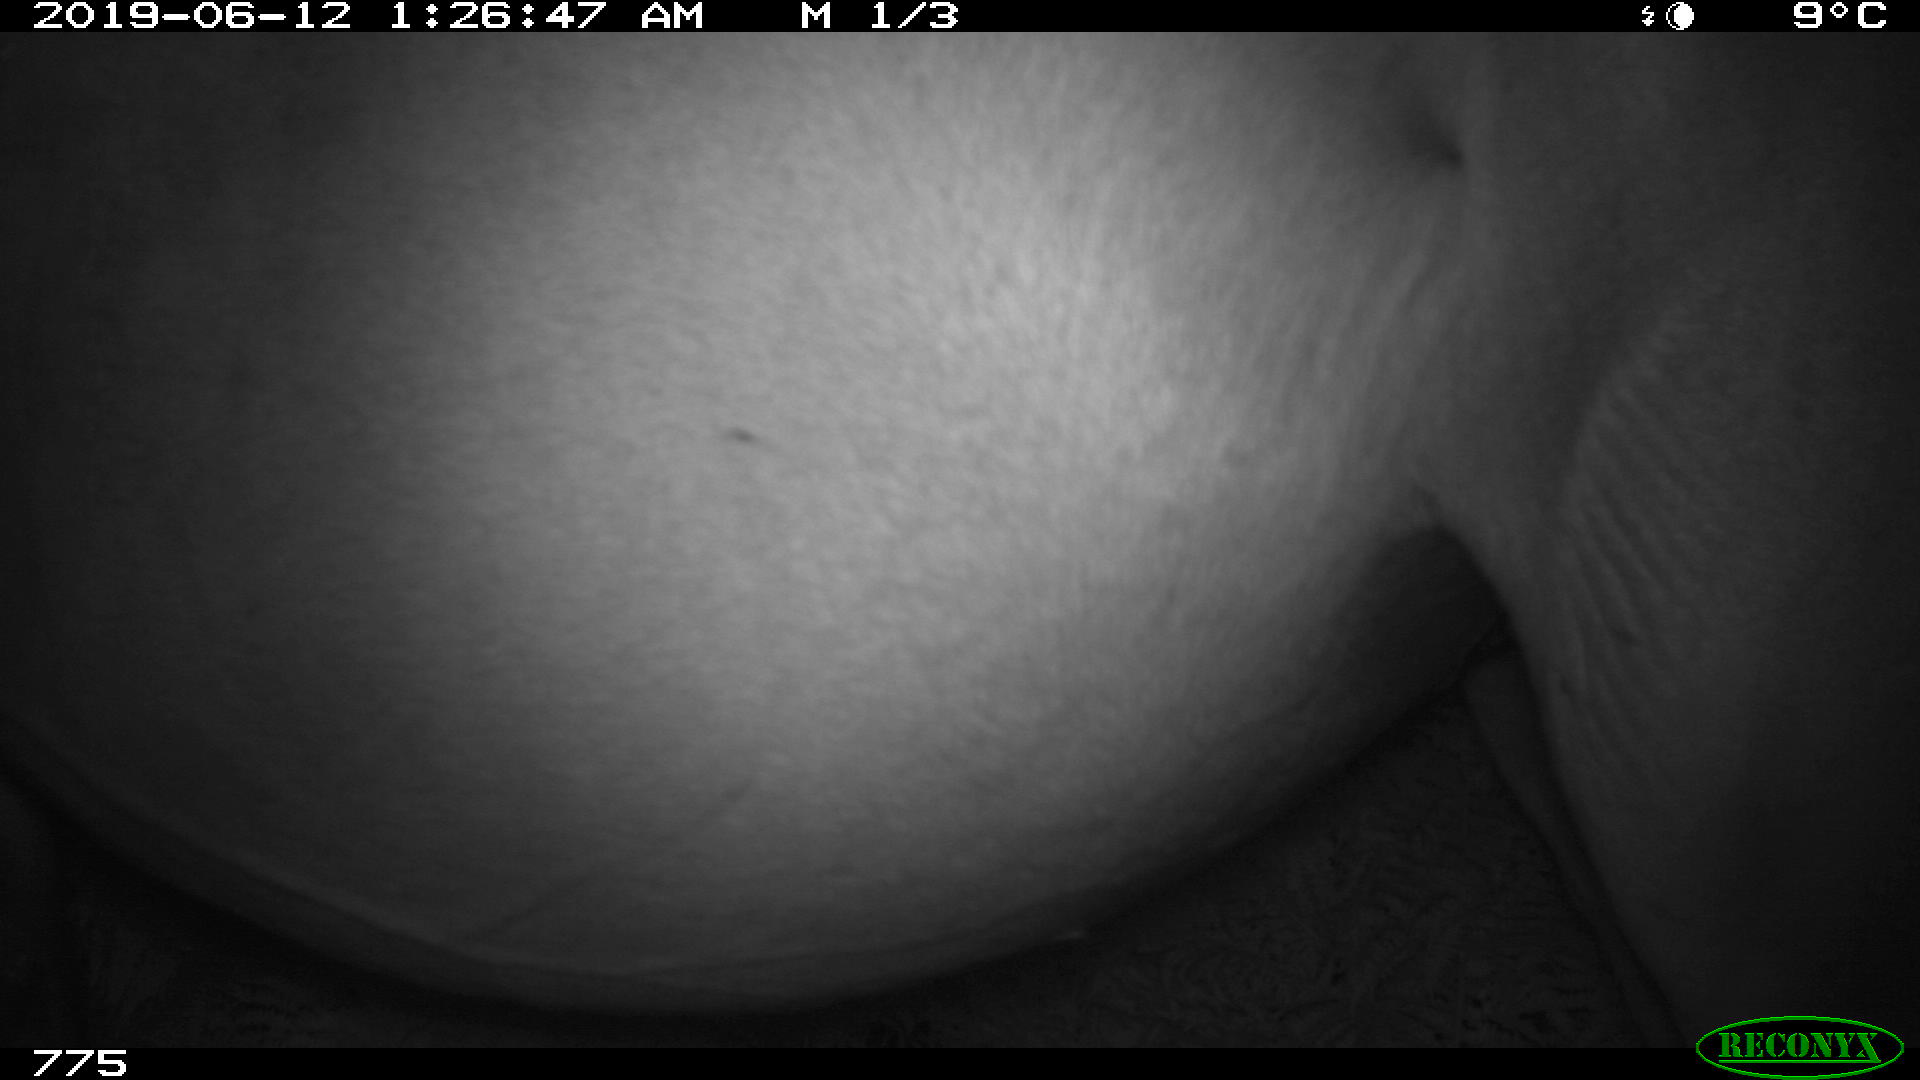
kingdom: Animalia
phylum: Chordata
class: Mammalia
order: Perissodactyla
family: Equidae
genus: Equus
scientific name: Equus caballus
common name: Horse
